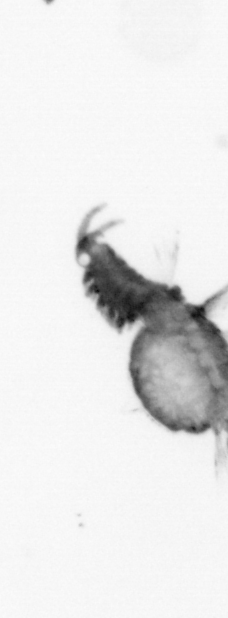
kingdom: Animalia
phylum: Annelida
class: Polychaeta
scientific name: Polychaeta
